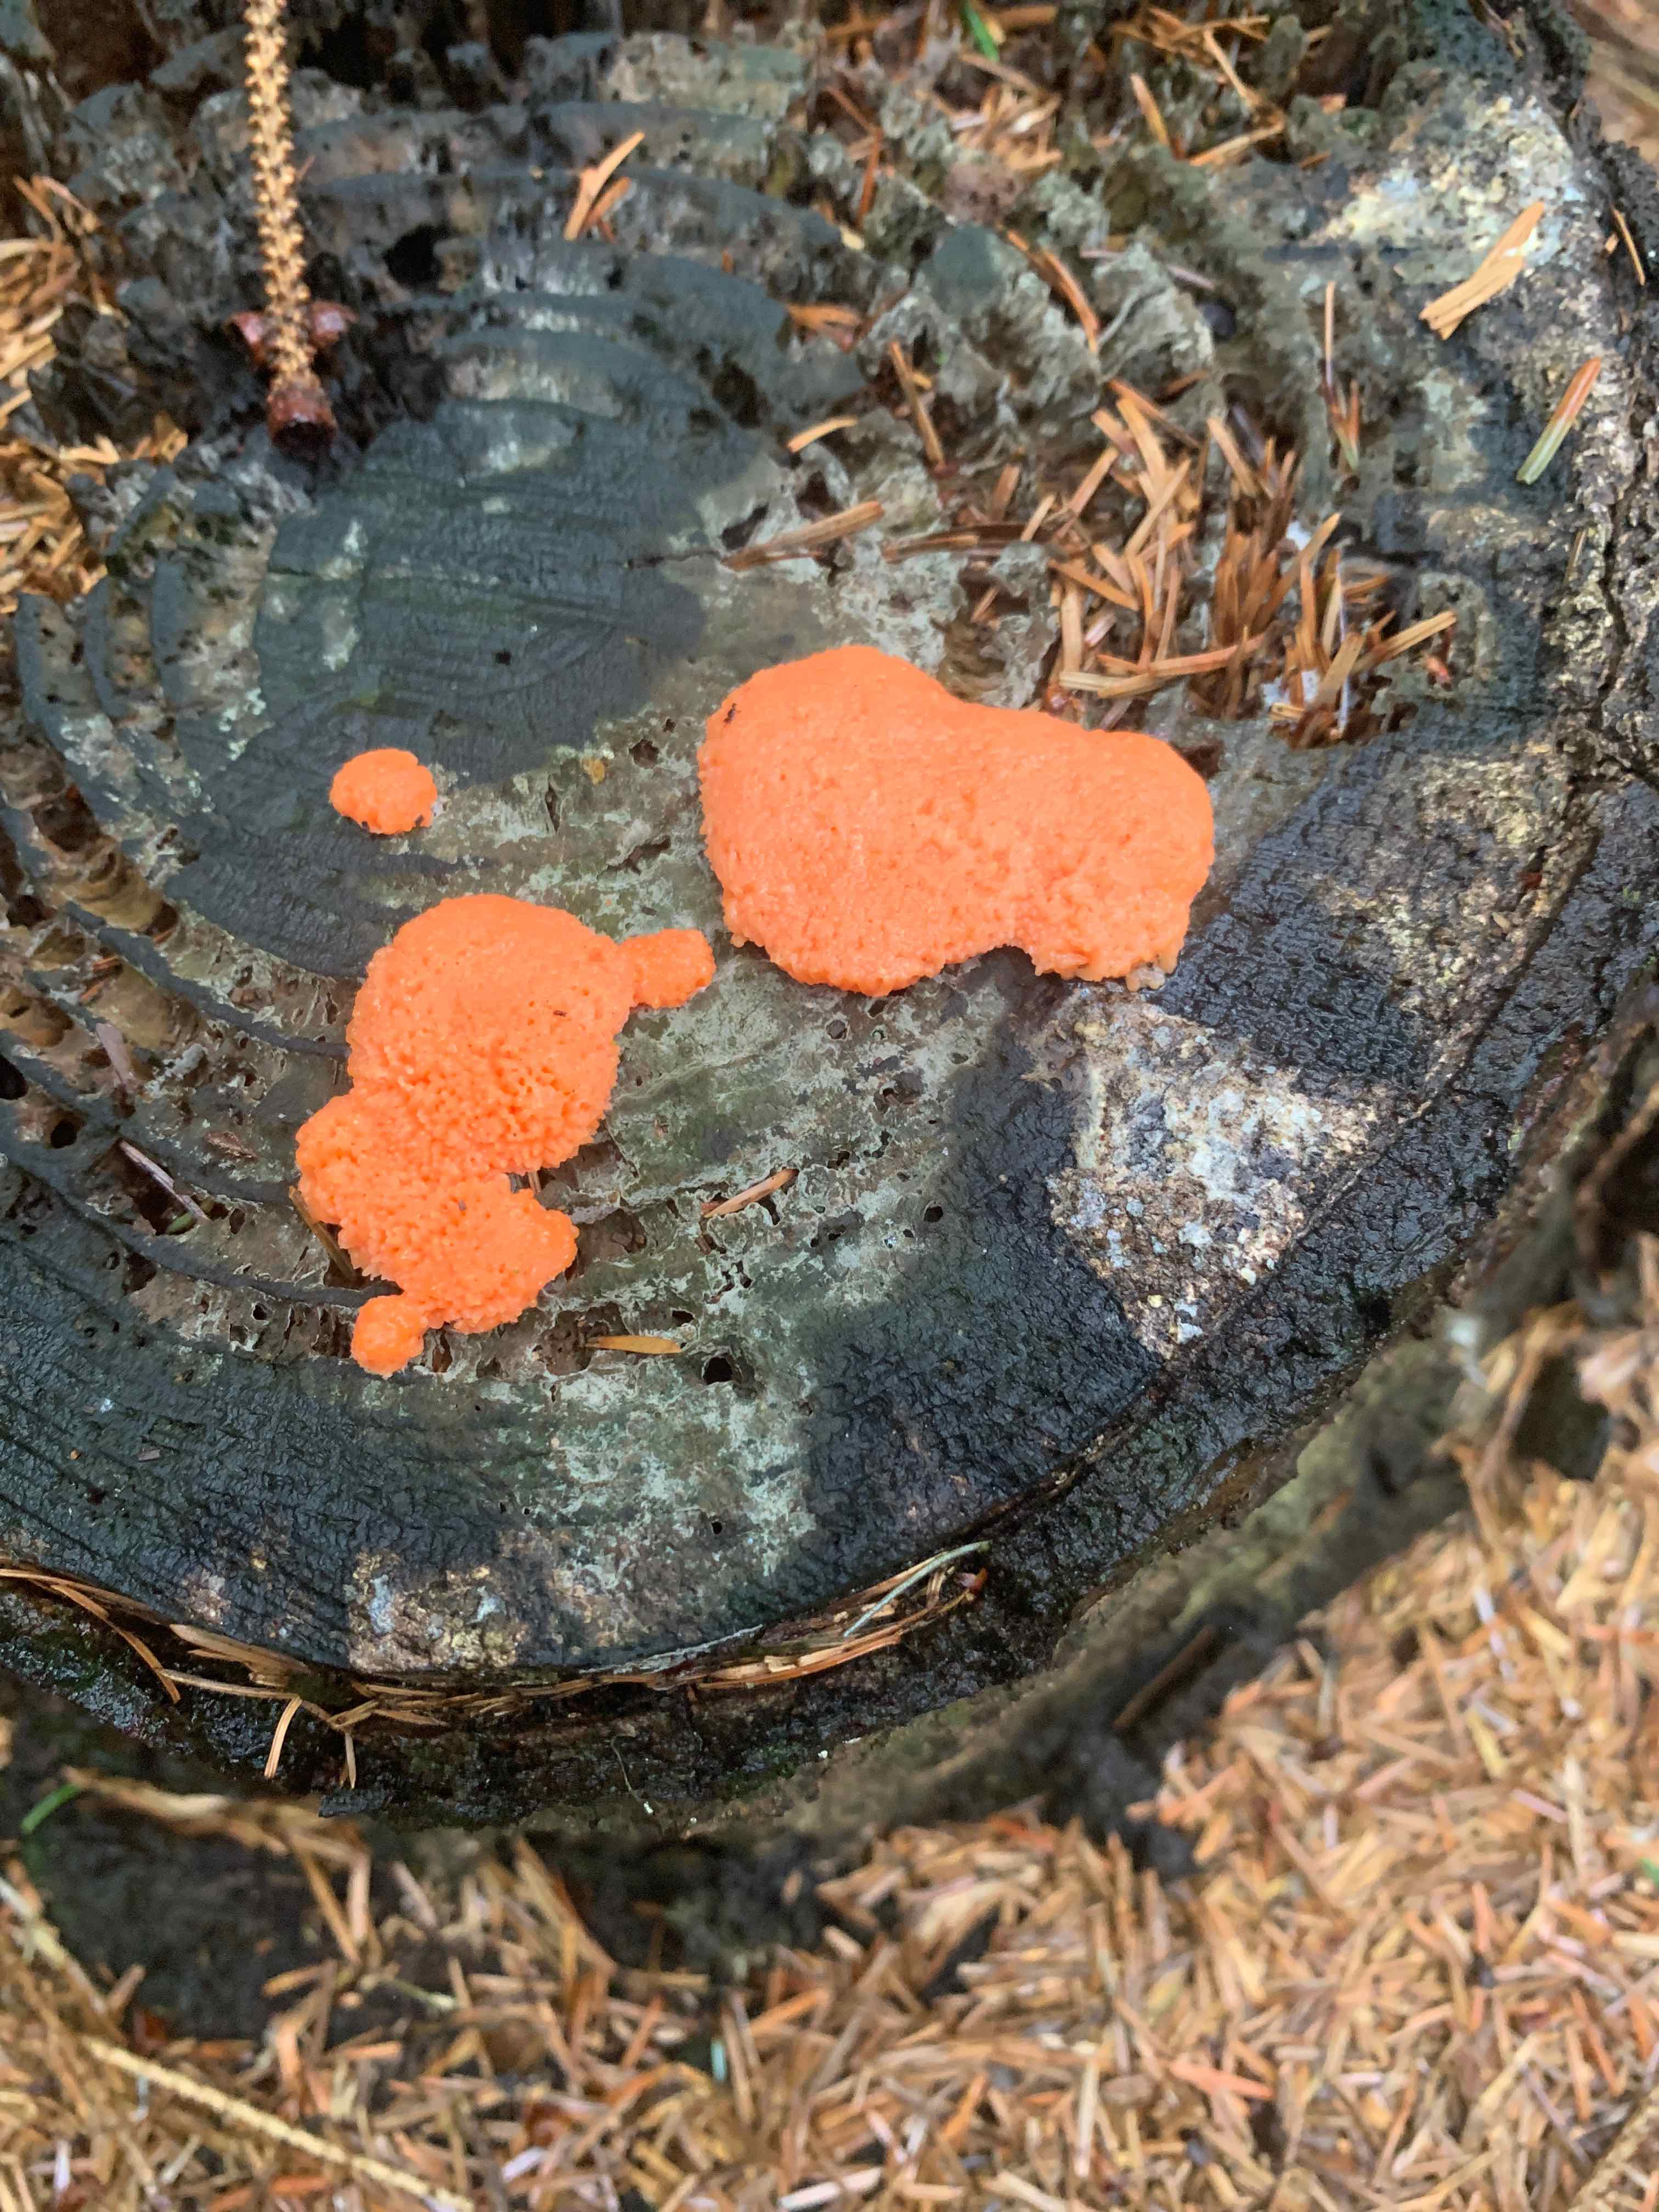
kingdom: Protozoa
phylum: Mycetozoa
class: Myxomycetes
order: Cribrariales
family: Tubiferaceae
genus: Tubifera
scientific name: Tubifera ferruginosa
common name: kanel-støvrør
